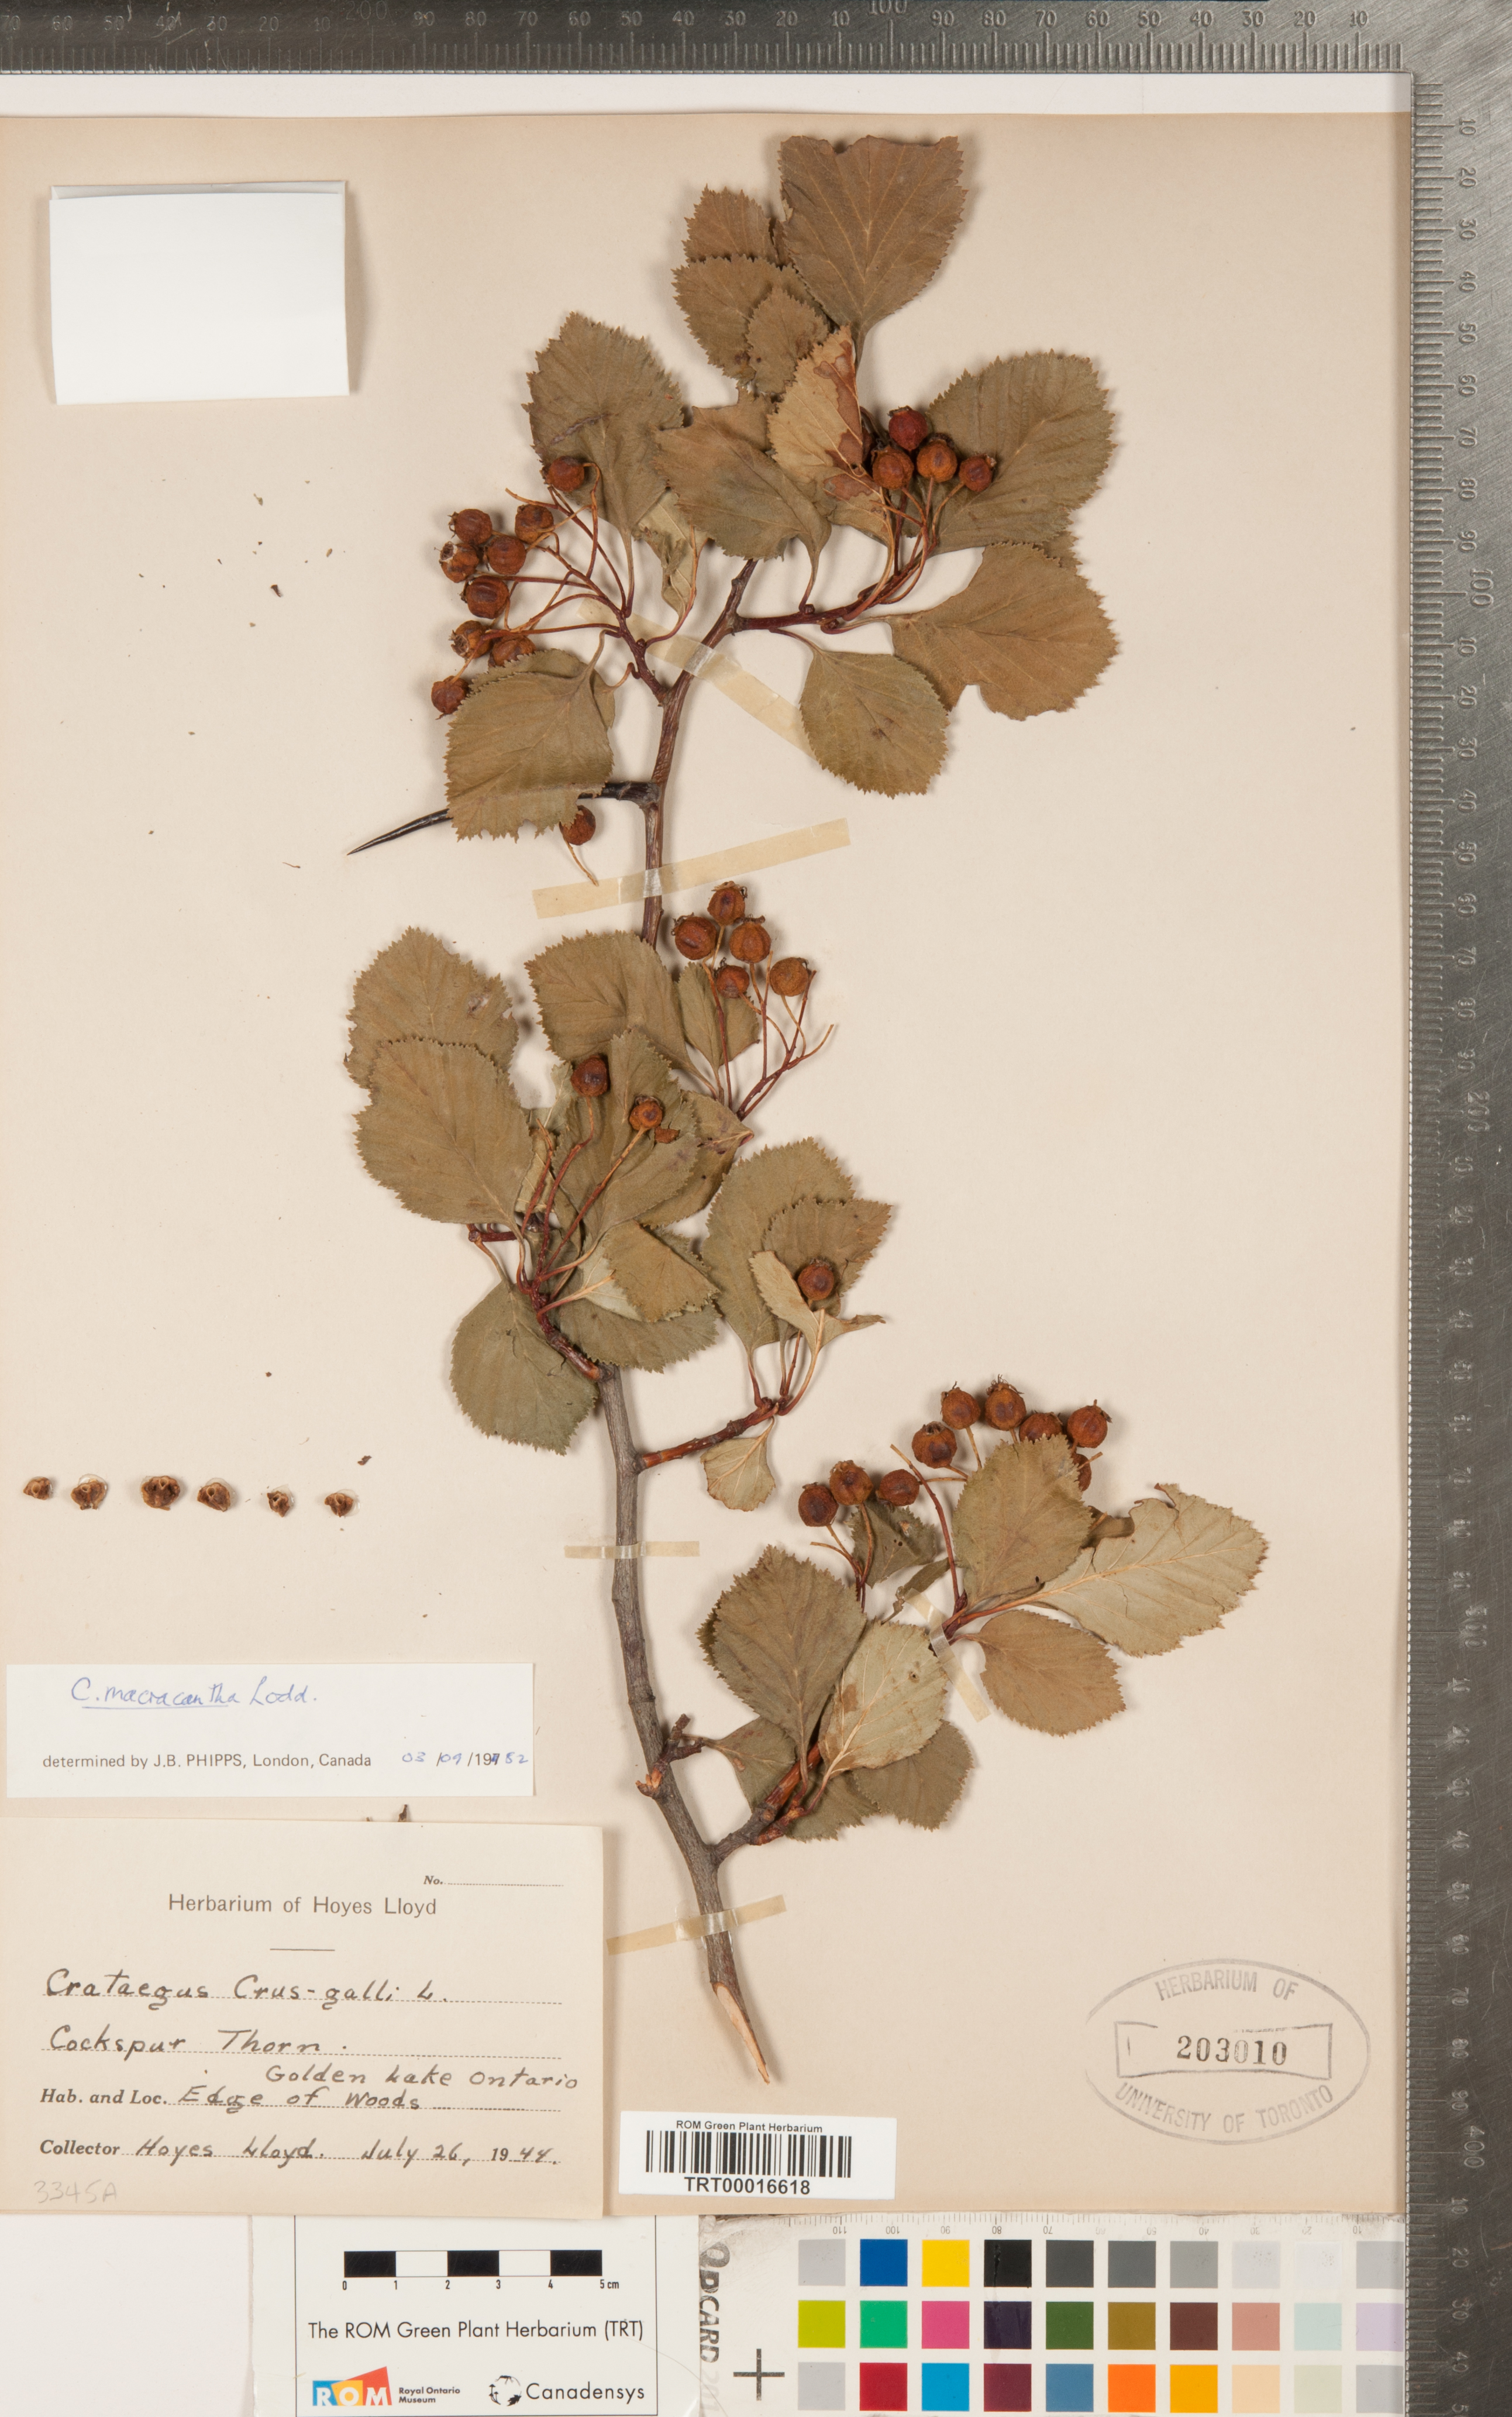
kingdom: Plantae
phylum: Tracheophyta
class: Magnoliopsida
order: Rosales
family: Rosaceae
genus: Crataegus
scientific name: Crataegus macracantha
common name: Large-thorn hawthorn
